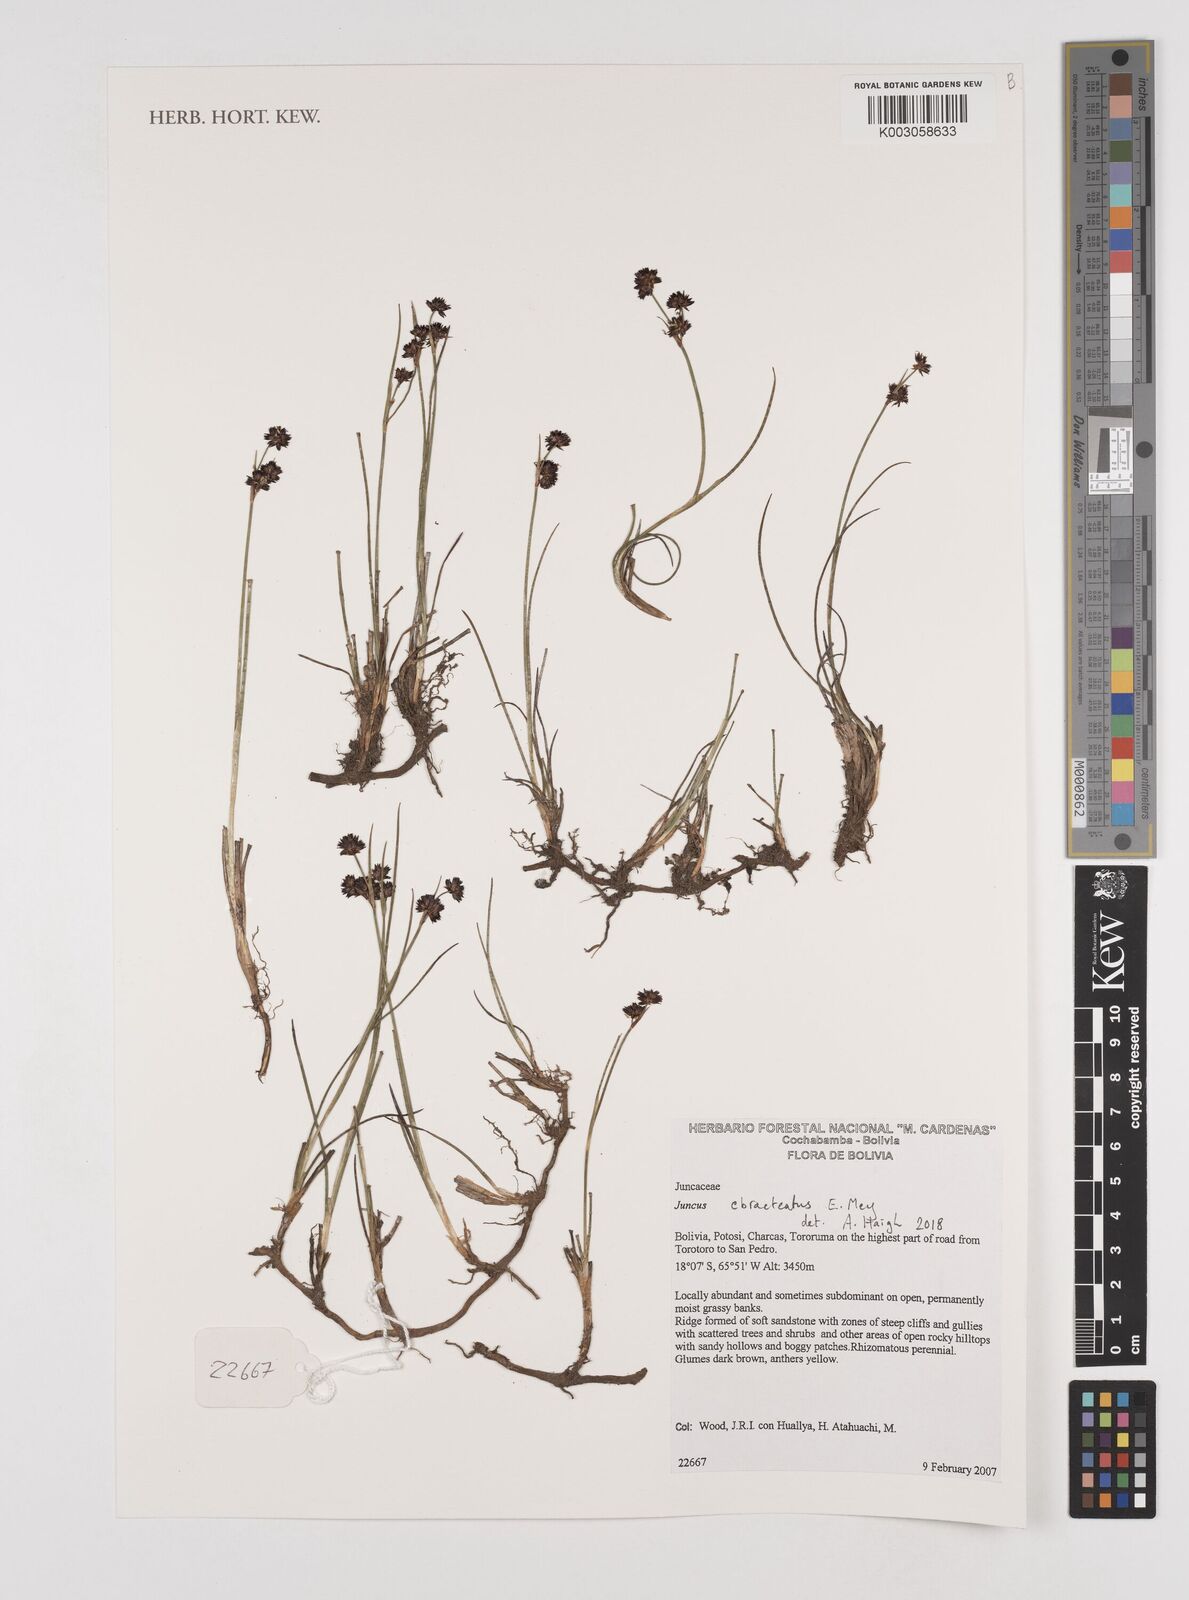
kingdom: Plantae
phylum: Tracheophyta
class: Liliopsida
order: Poales
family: Juncaceae
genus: Juncus
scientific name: Juncus ebracteatus
